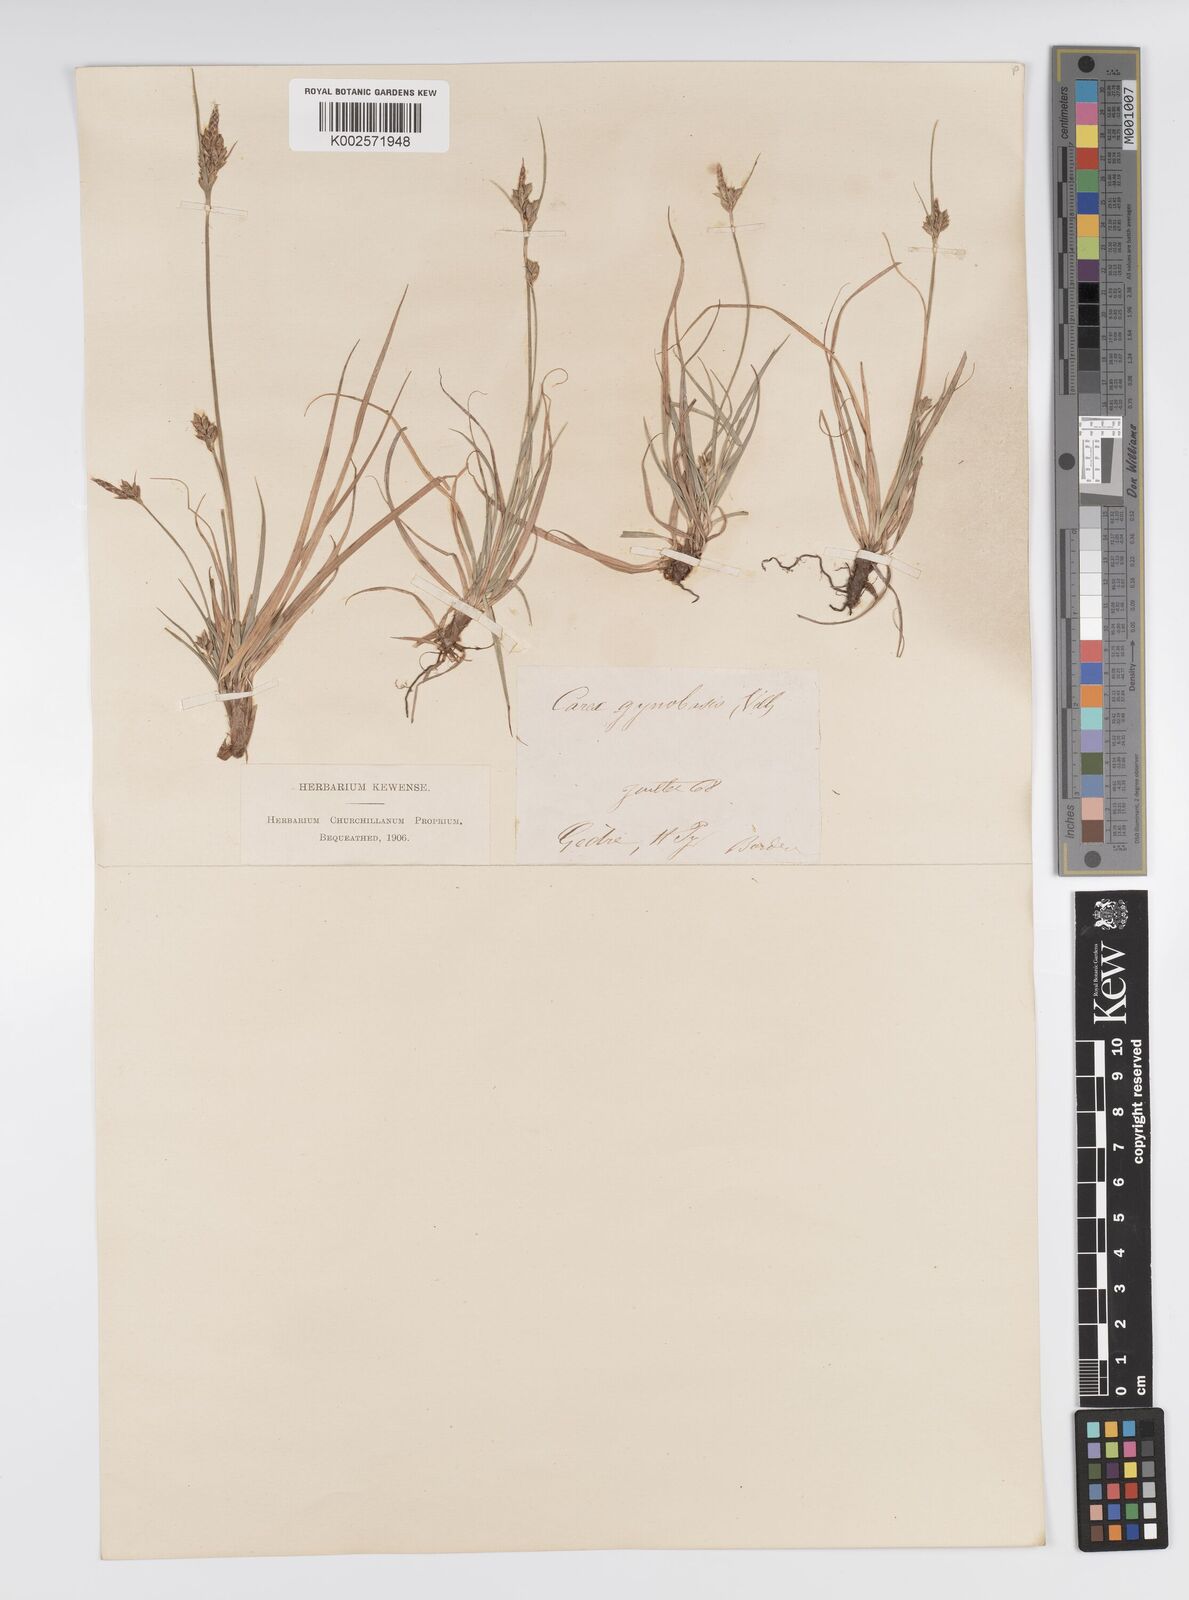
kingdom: Plantae
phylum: Tracheophyta
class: Liliopsida
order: Poales
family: Cyperaceae
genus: Carex
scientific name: Carex halleriana
